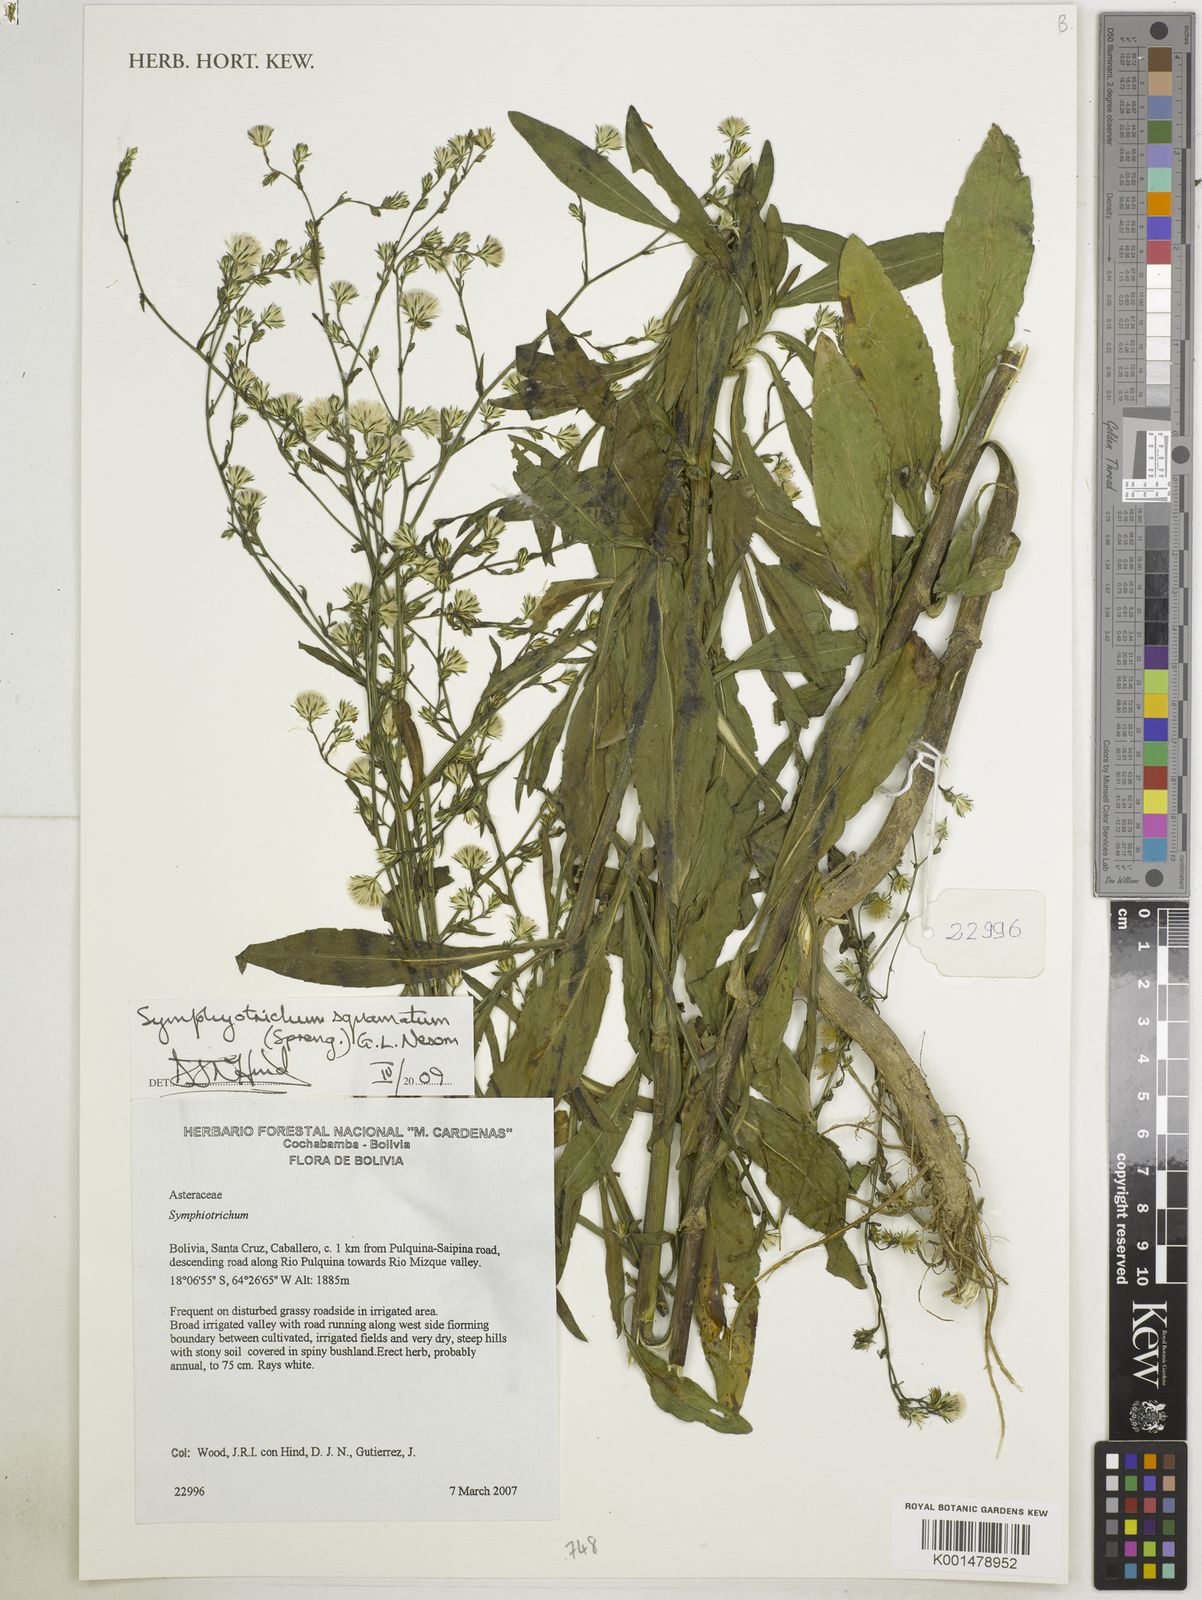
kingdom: Plantae
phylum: Tracheophyta
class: Magnoliopsida
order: Asterales
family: Asteraceae
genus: Symphyotrichum
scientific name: Symphyotrichum squamatum
